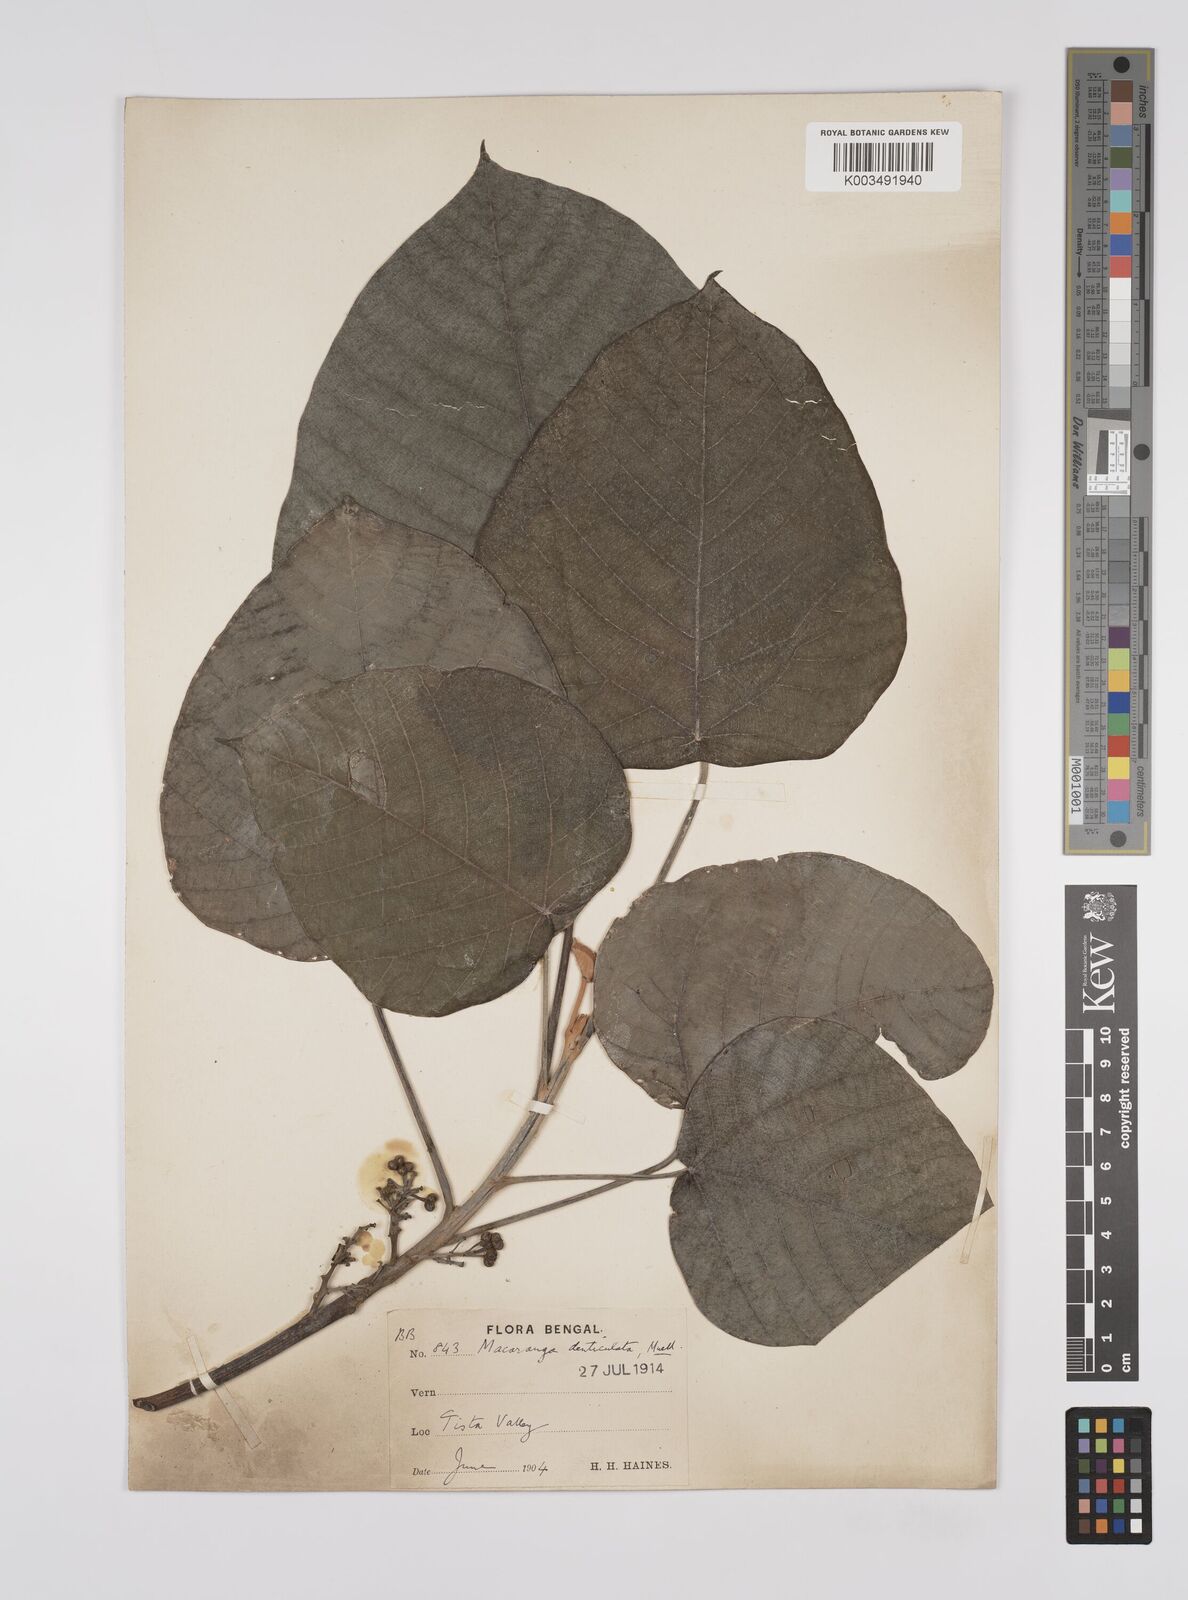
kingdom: Plantae
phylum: Tracheophyta
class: Magnoliopsida
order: Malpighiales
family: Euphorbiaceae
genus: Macaranga
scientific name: Macaranga denticulata
